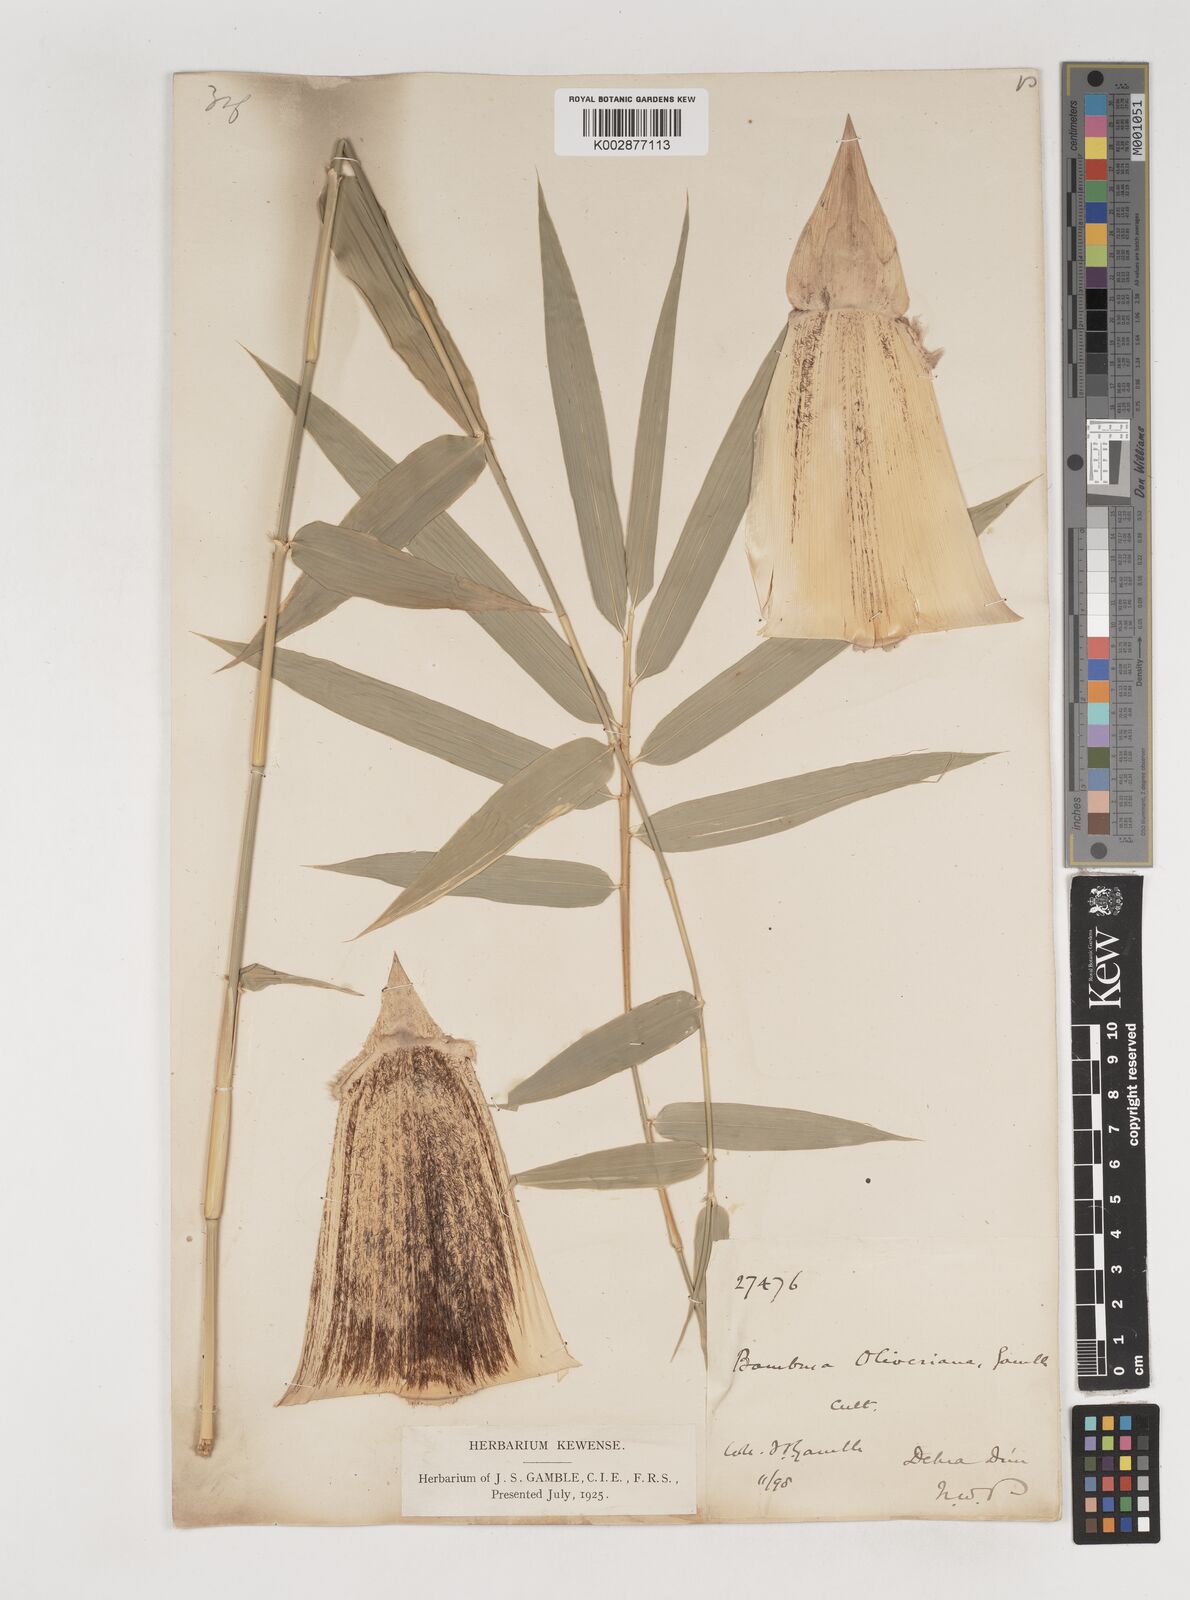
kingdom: Plantae
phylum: Tracheophyta
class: Liliopsida
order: Poales
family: Poaceae
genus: Bambusa
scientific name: Bambusa
